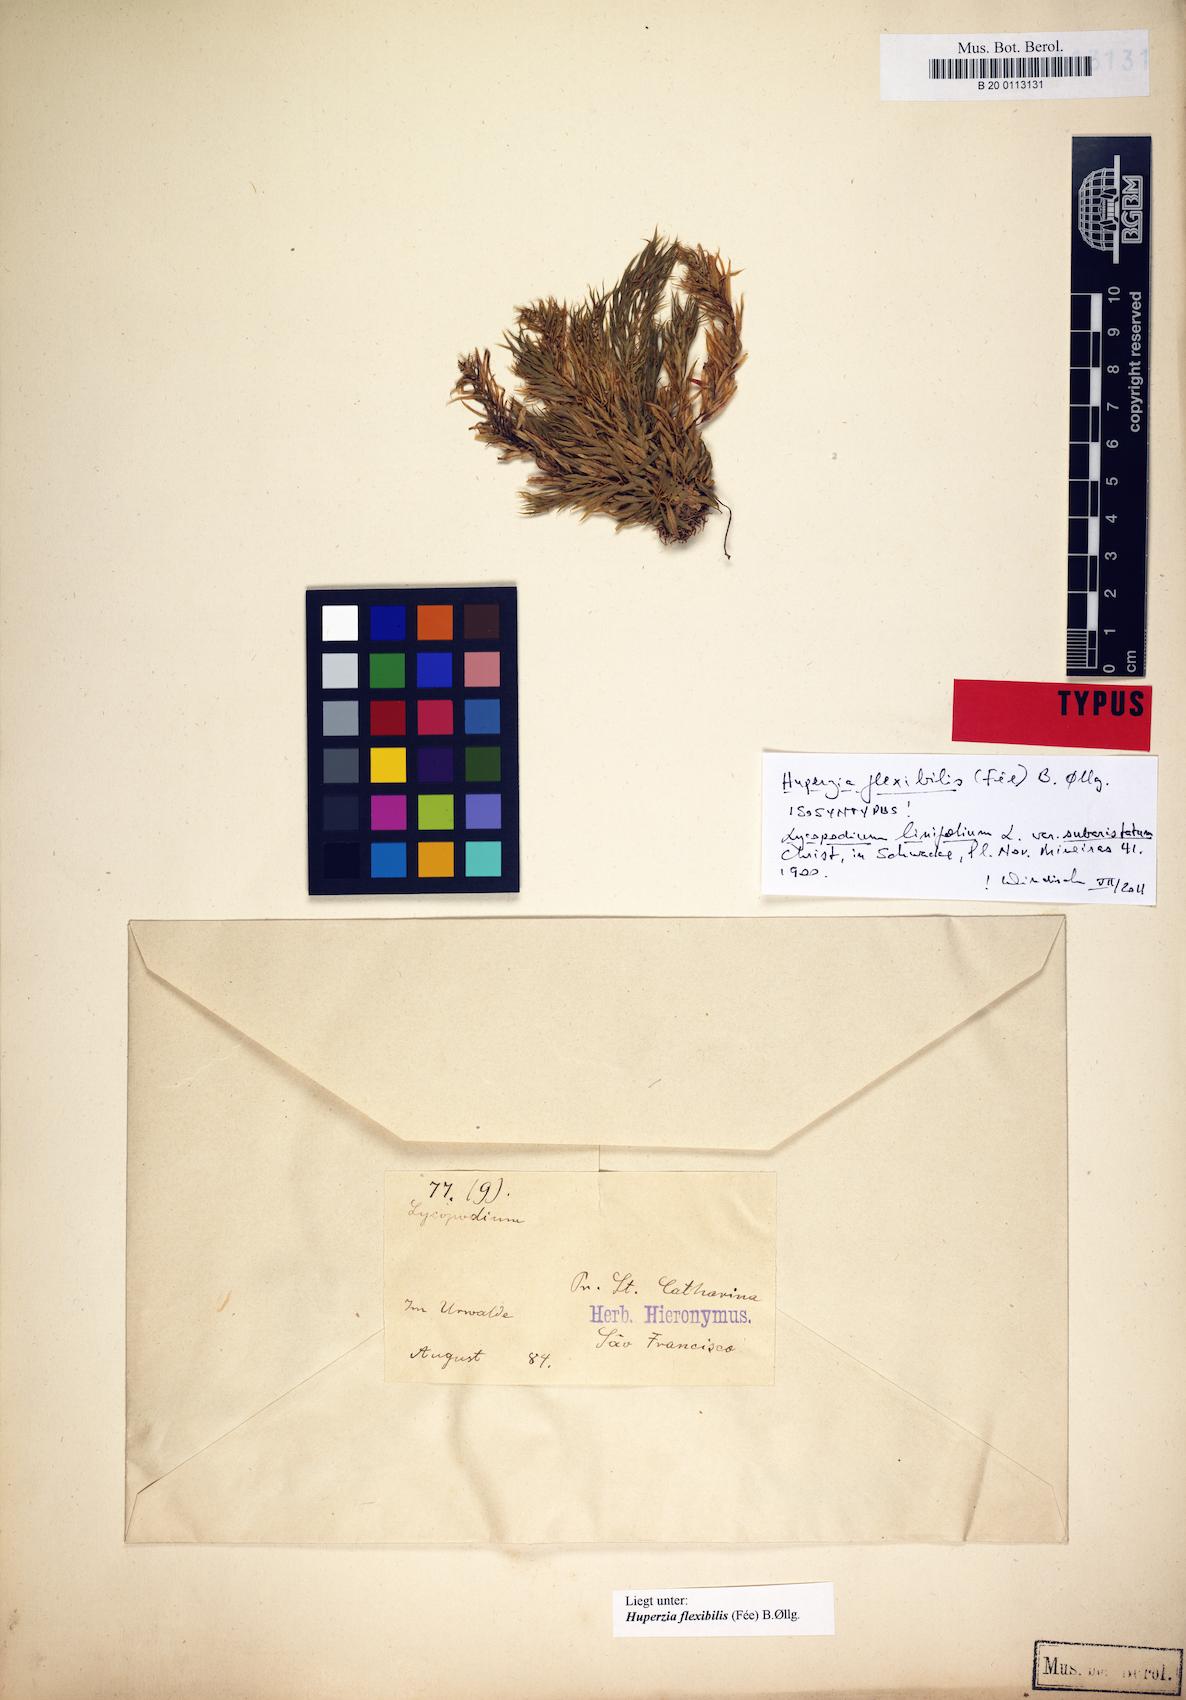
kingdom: Plantae
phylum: Tracheophyta
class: Lycopodiopsida
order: Lycopodiales
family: Lycopodiaceae
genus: Phlegmariurus
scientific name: Phlegmariurus flexibilis
